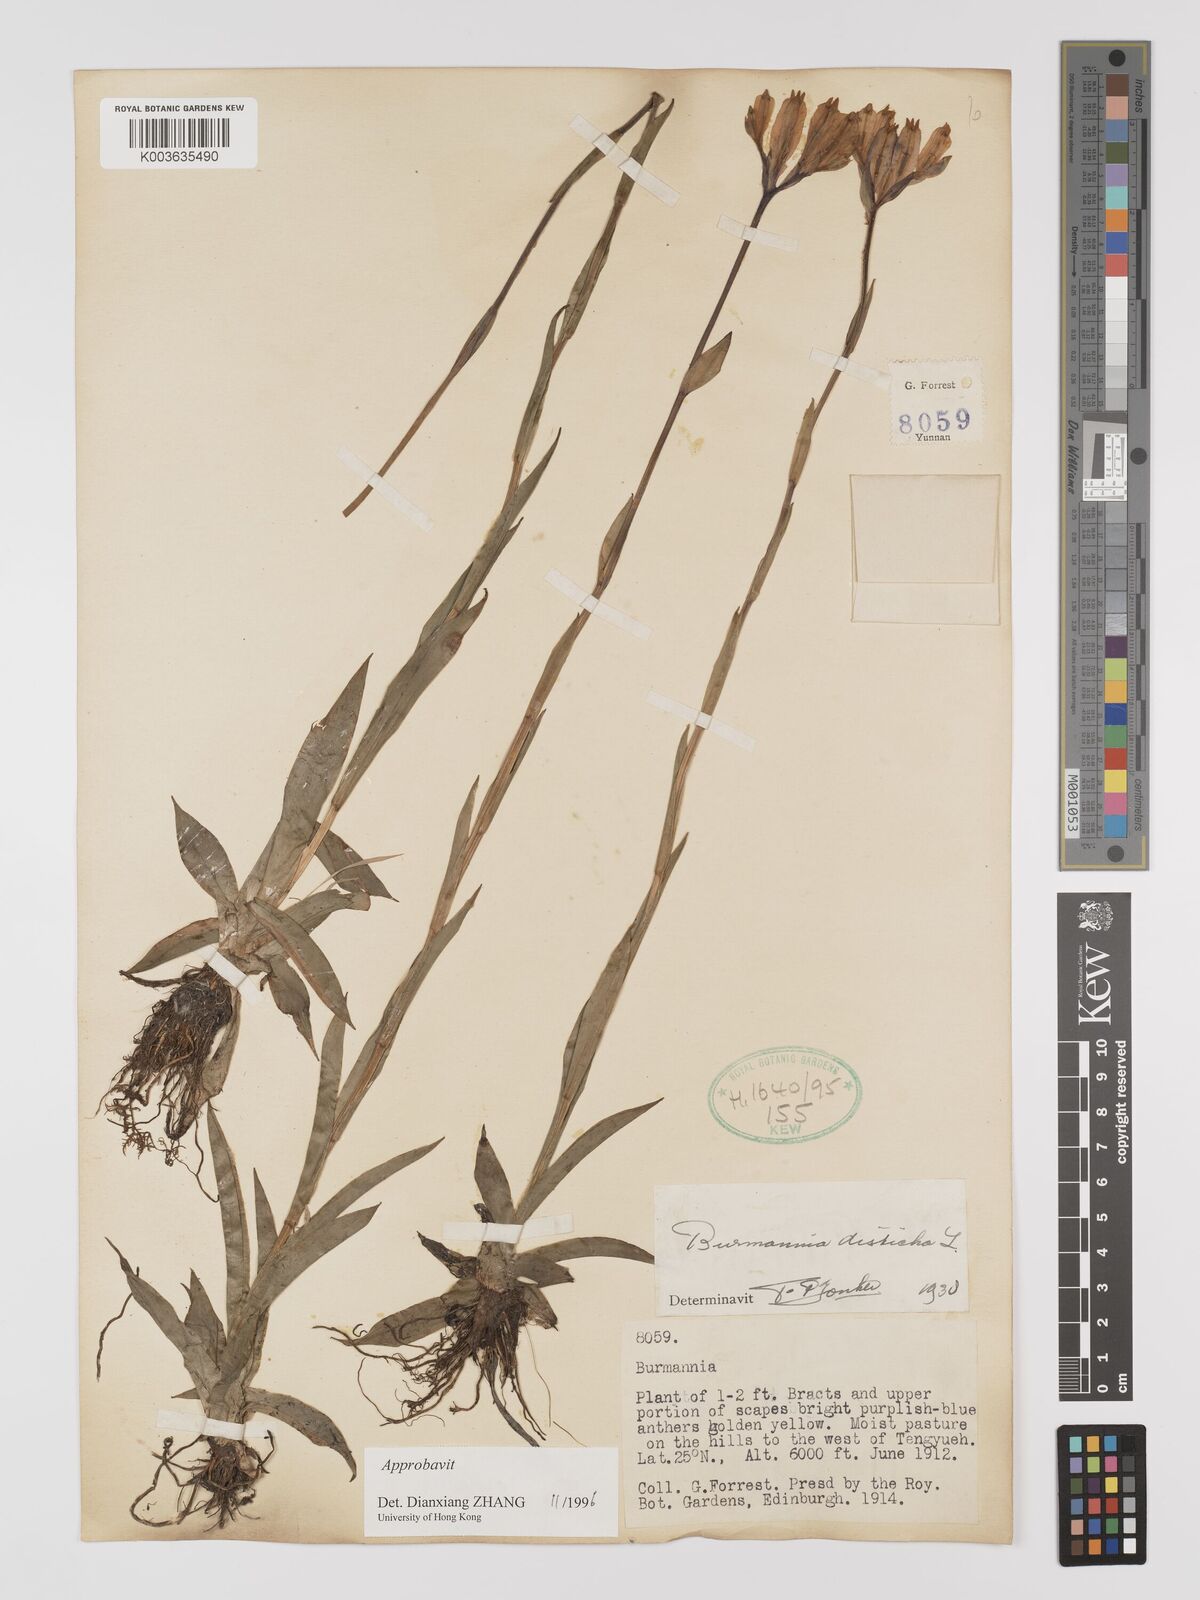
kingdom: Plantae
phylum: Tracheophyta
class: Liliopsida
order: Dioscoreales
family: Burmanniaceae
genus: Burmannia
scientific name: Burmannia disticha
